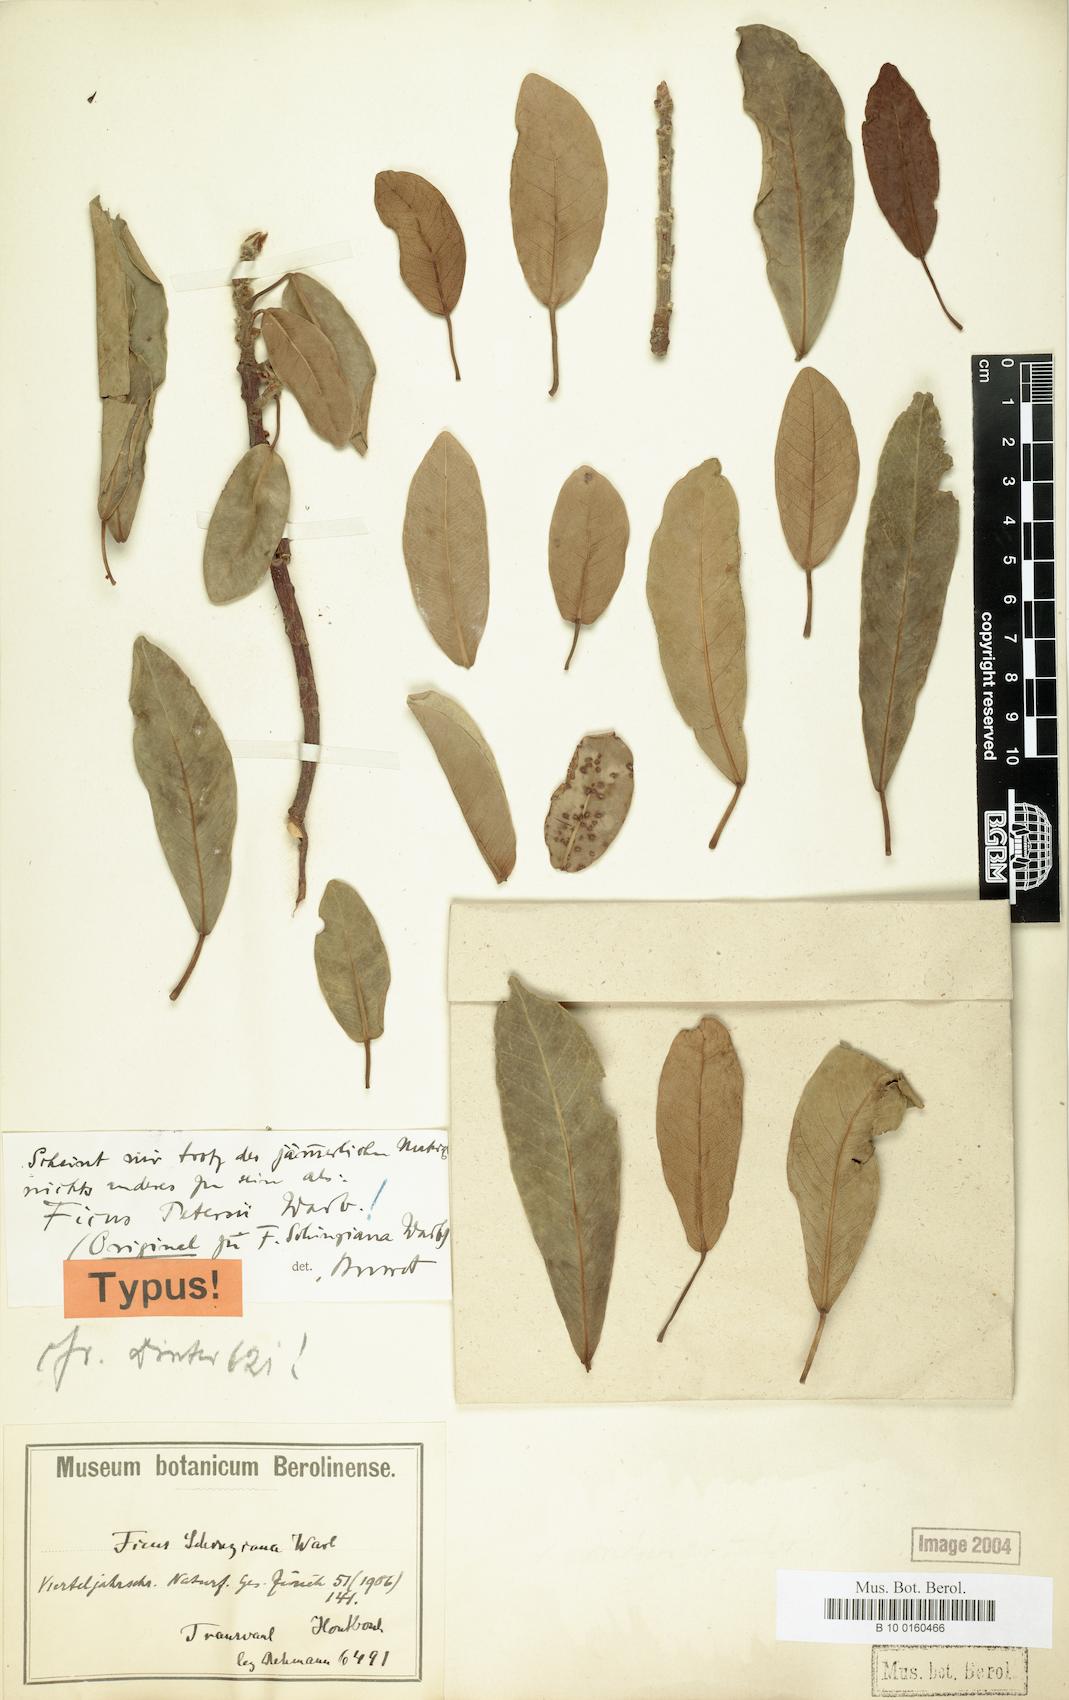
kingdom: Plantae
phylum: Tracheophyta
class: Magnoliopsida
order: Rosales
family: Moraceae
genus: Ficus
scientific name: Ficus petersii
